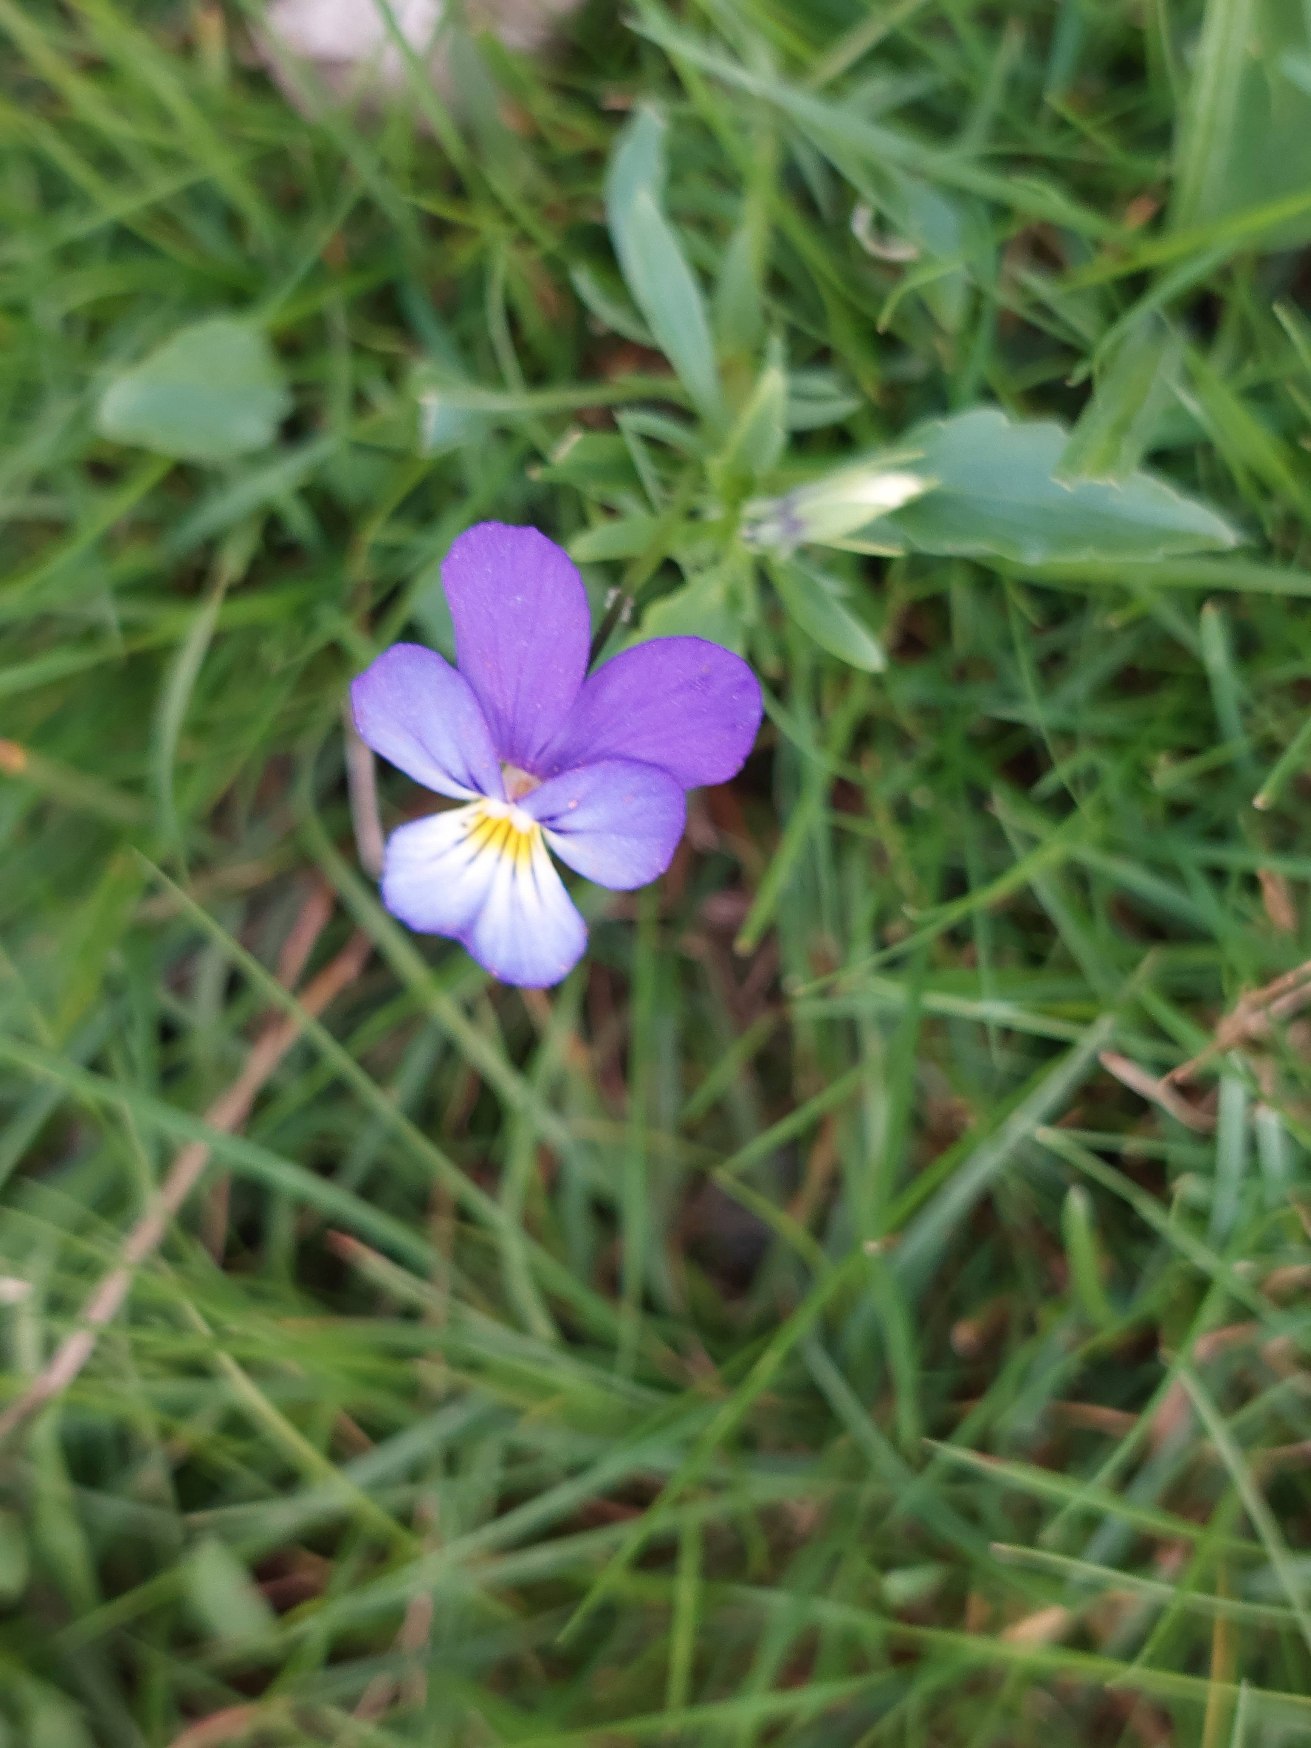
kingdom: Plantae
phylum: Tracheophyta
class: Magnoliopsida
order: Malpighiales
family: Violaceae
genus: Viola
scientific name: Viola tricolor
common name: Stedmoderblomst
